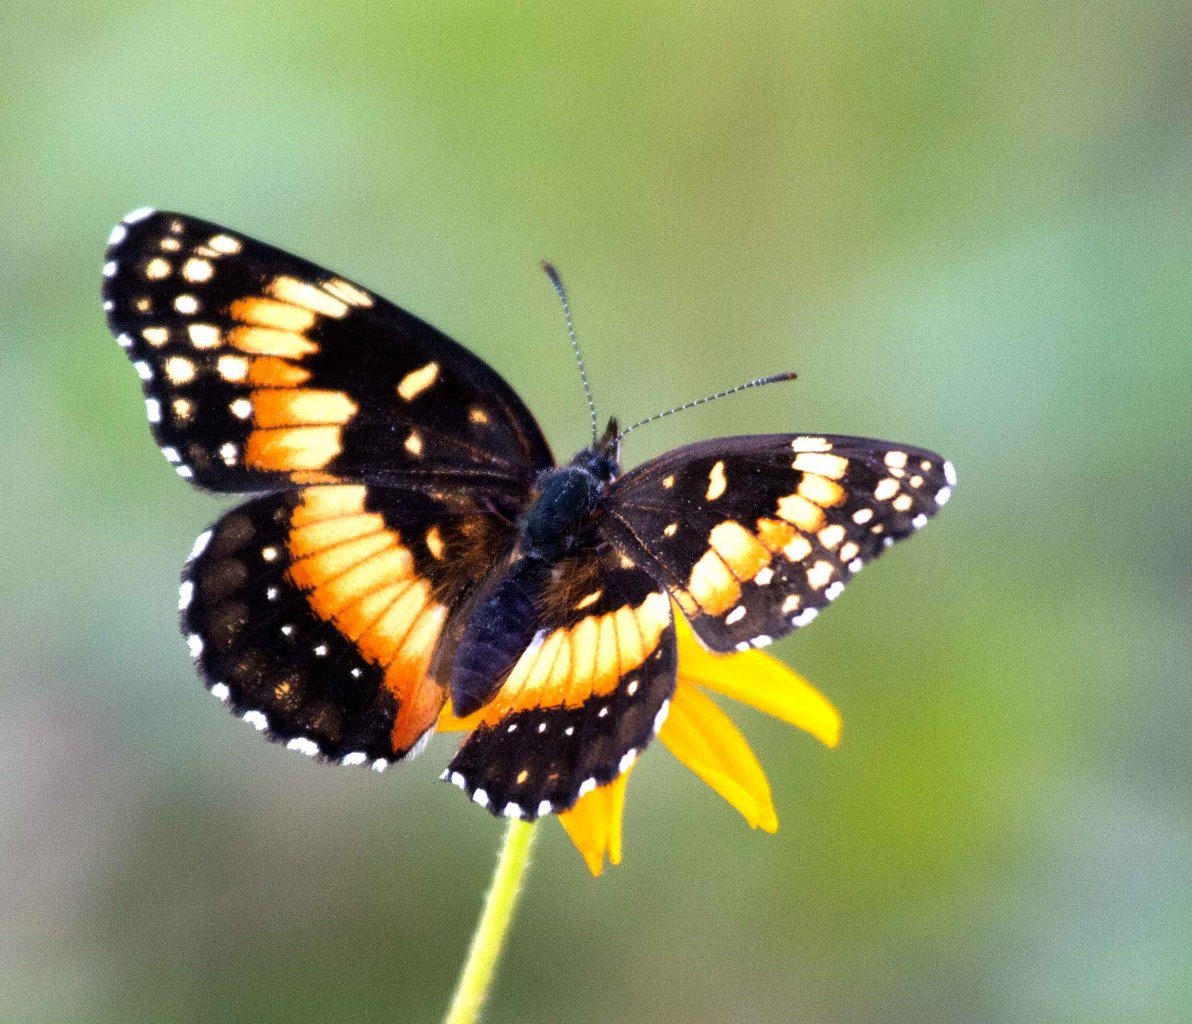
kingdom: Animalia
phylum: Arthropoda
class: Insecta
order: Lepidoptera
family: Nymphalidae
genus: Chlosyne
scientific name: Chlosyne lacinia
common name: Bordered Patch
